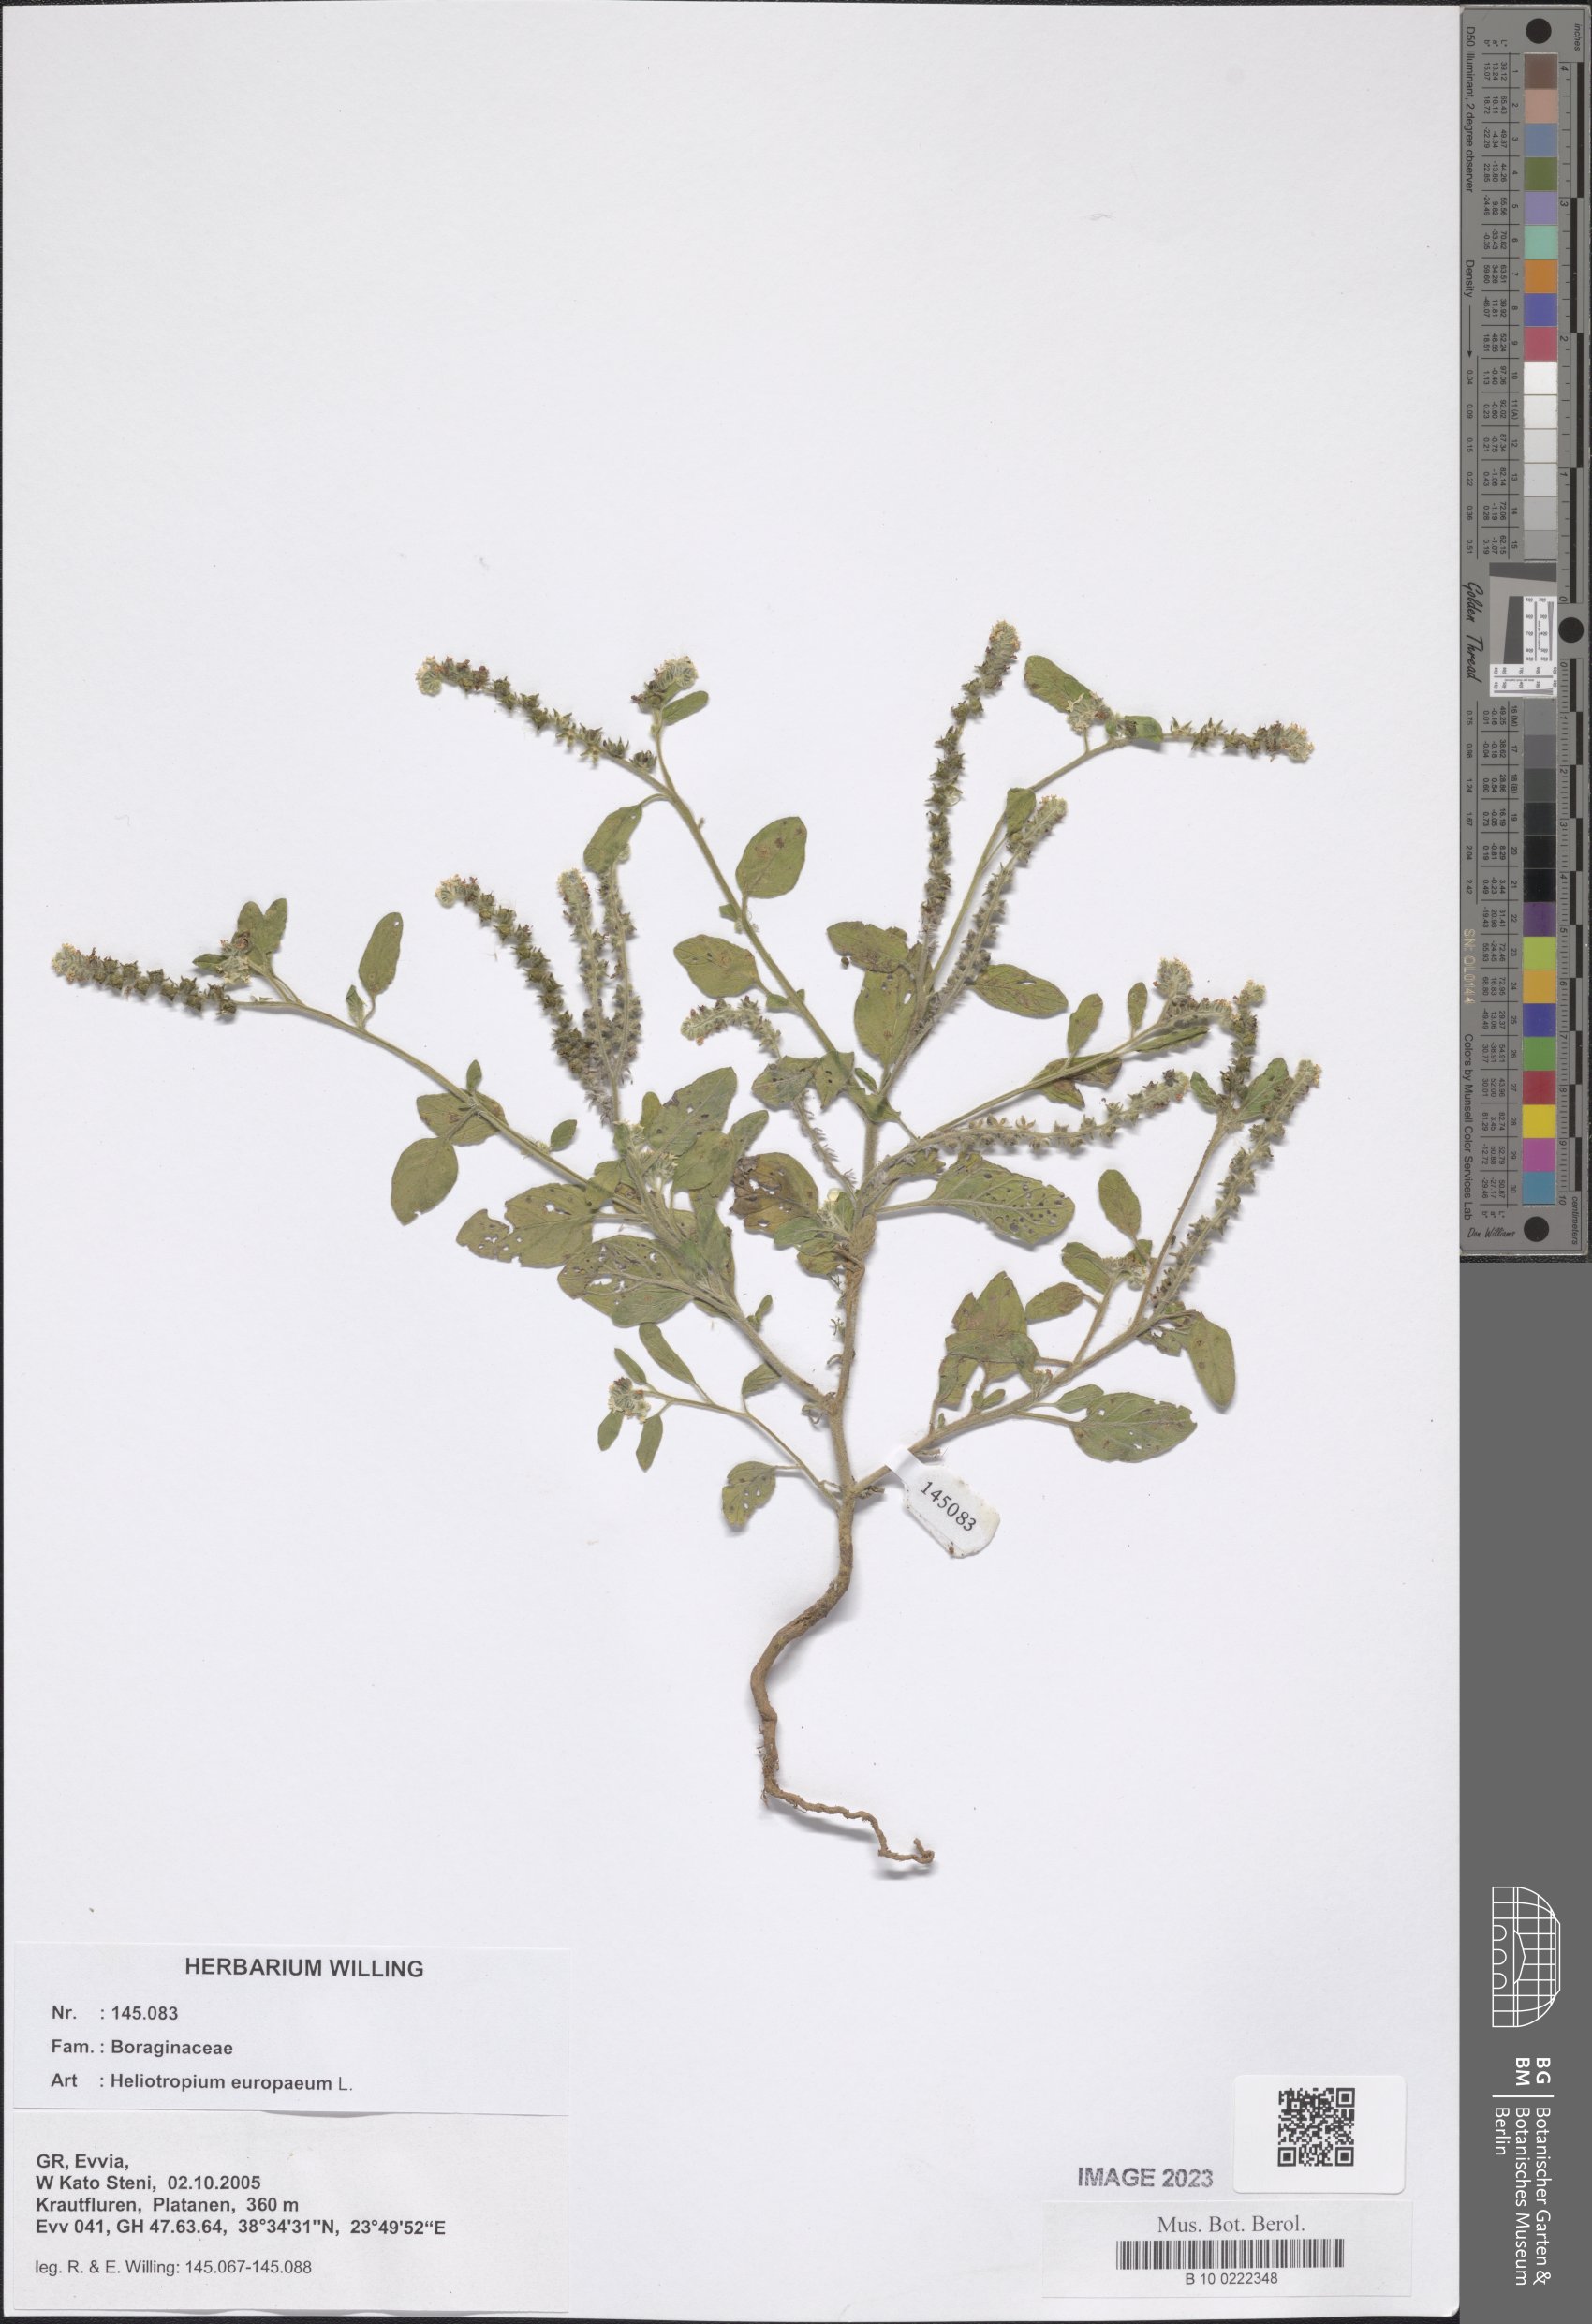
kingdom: Plantae
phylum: Tracheophyta
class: Magnoliopsida
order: Boraginales
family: Heliotropiaceae
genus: Heliotropium
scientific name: Heliotropium europaeum
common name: European heliotrope
